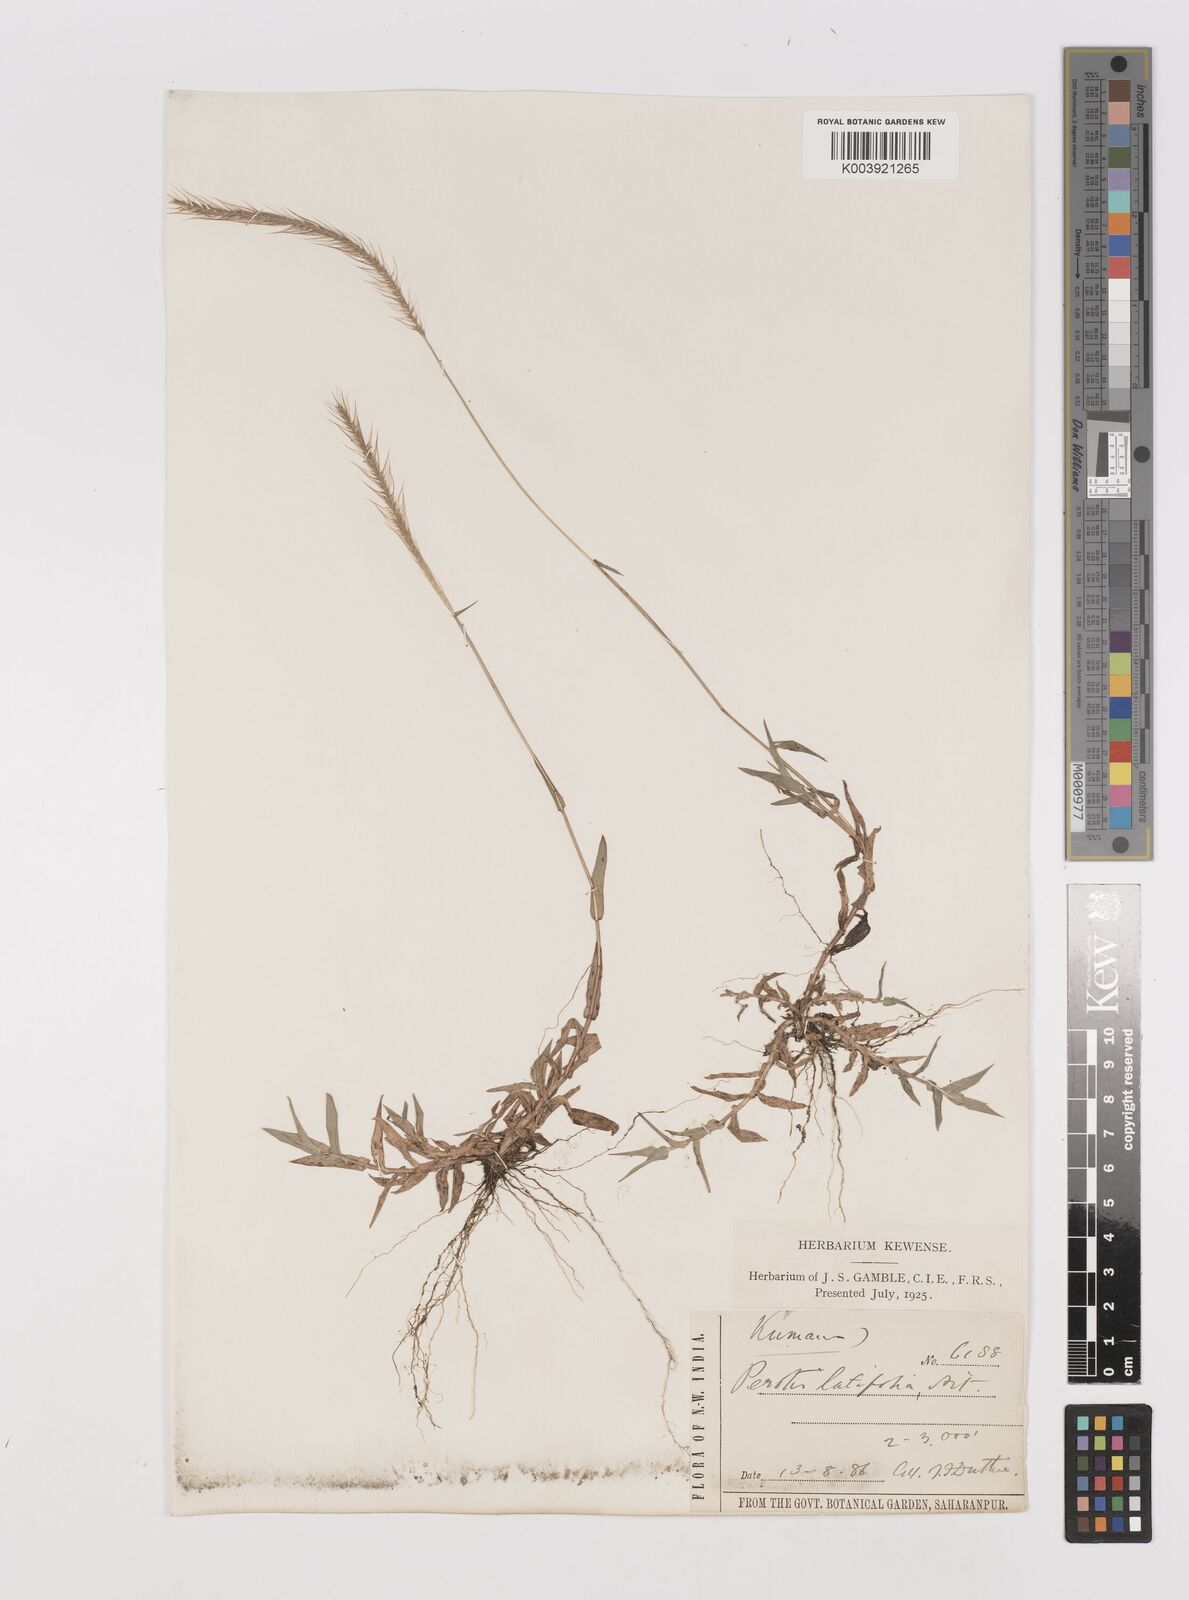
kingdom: Plantae
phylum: Tracheophyta
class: Liliopsida
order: Poales
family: Poaceae
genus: Perotis
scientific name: Perotis hordeiformis
